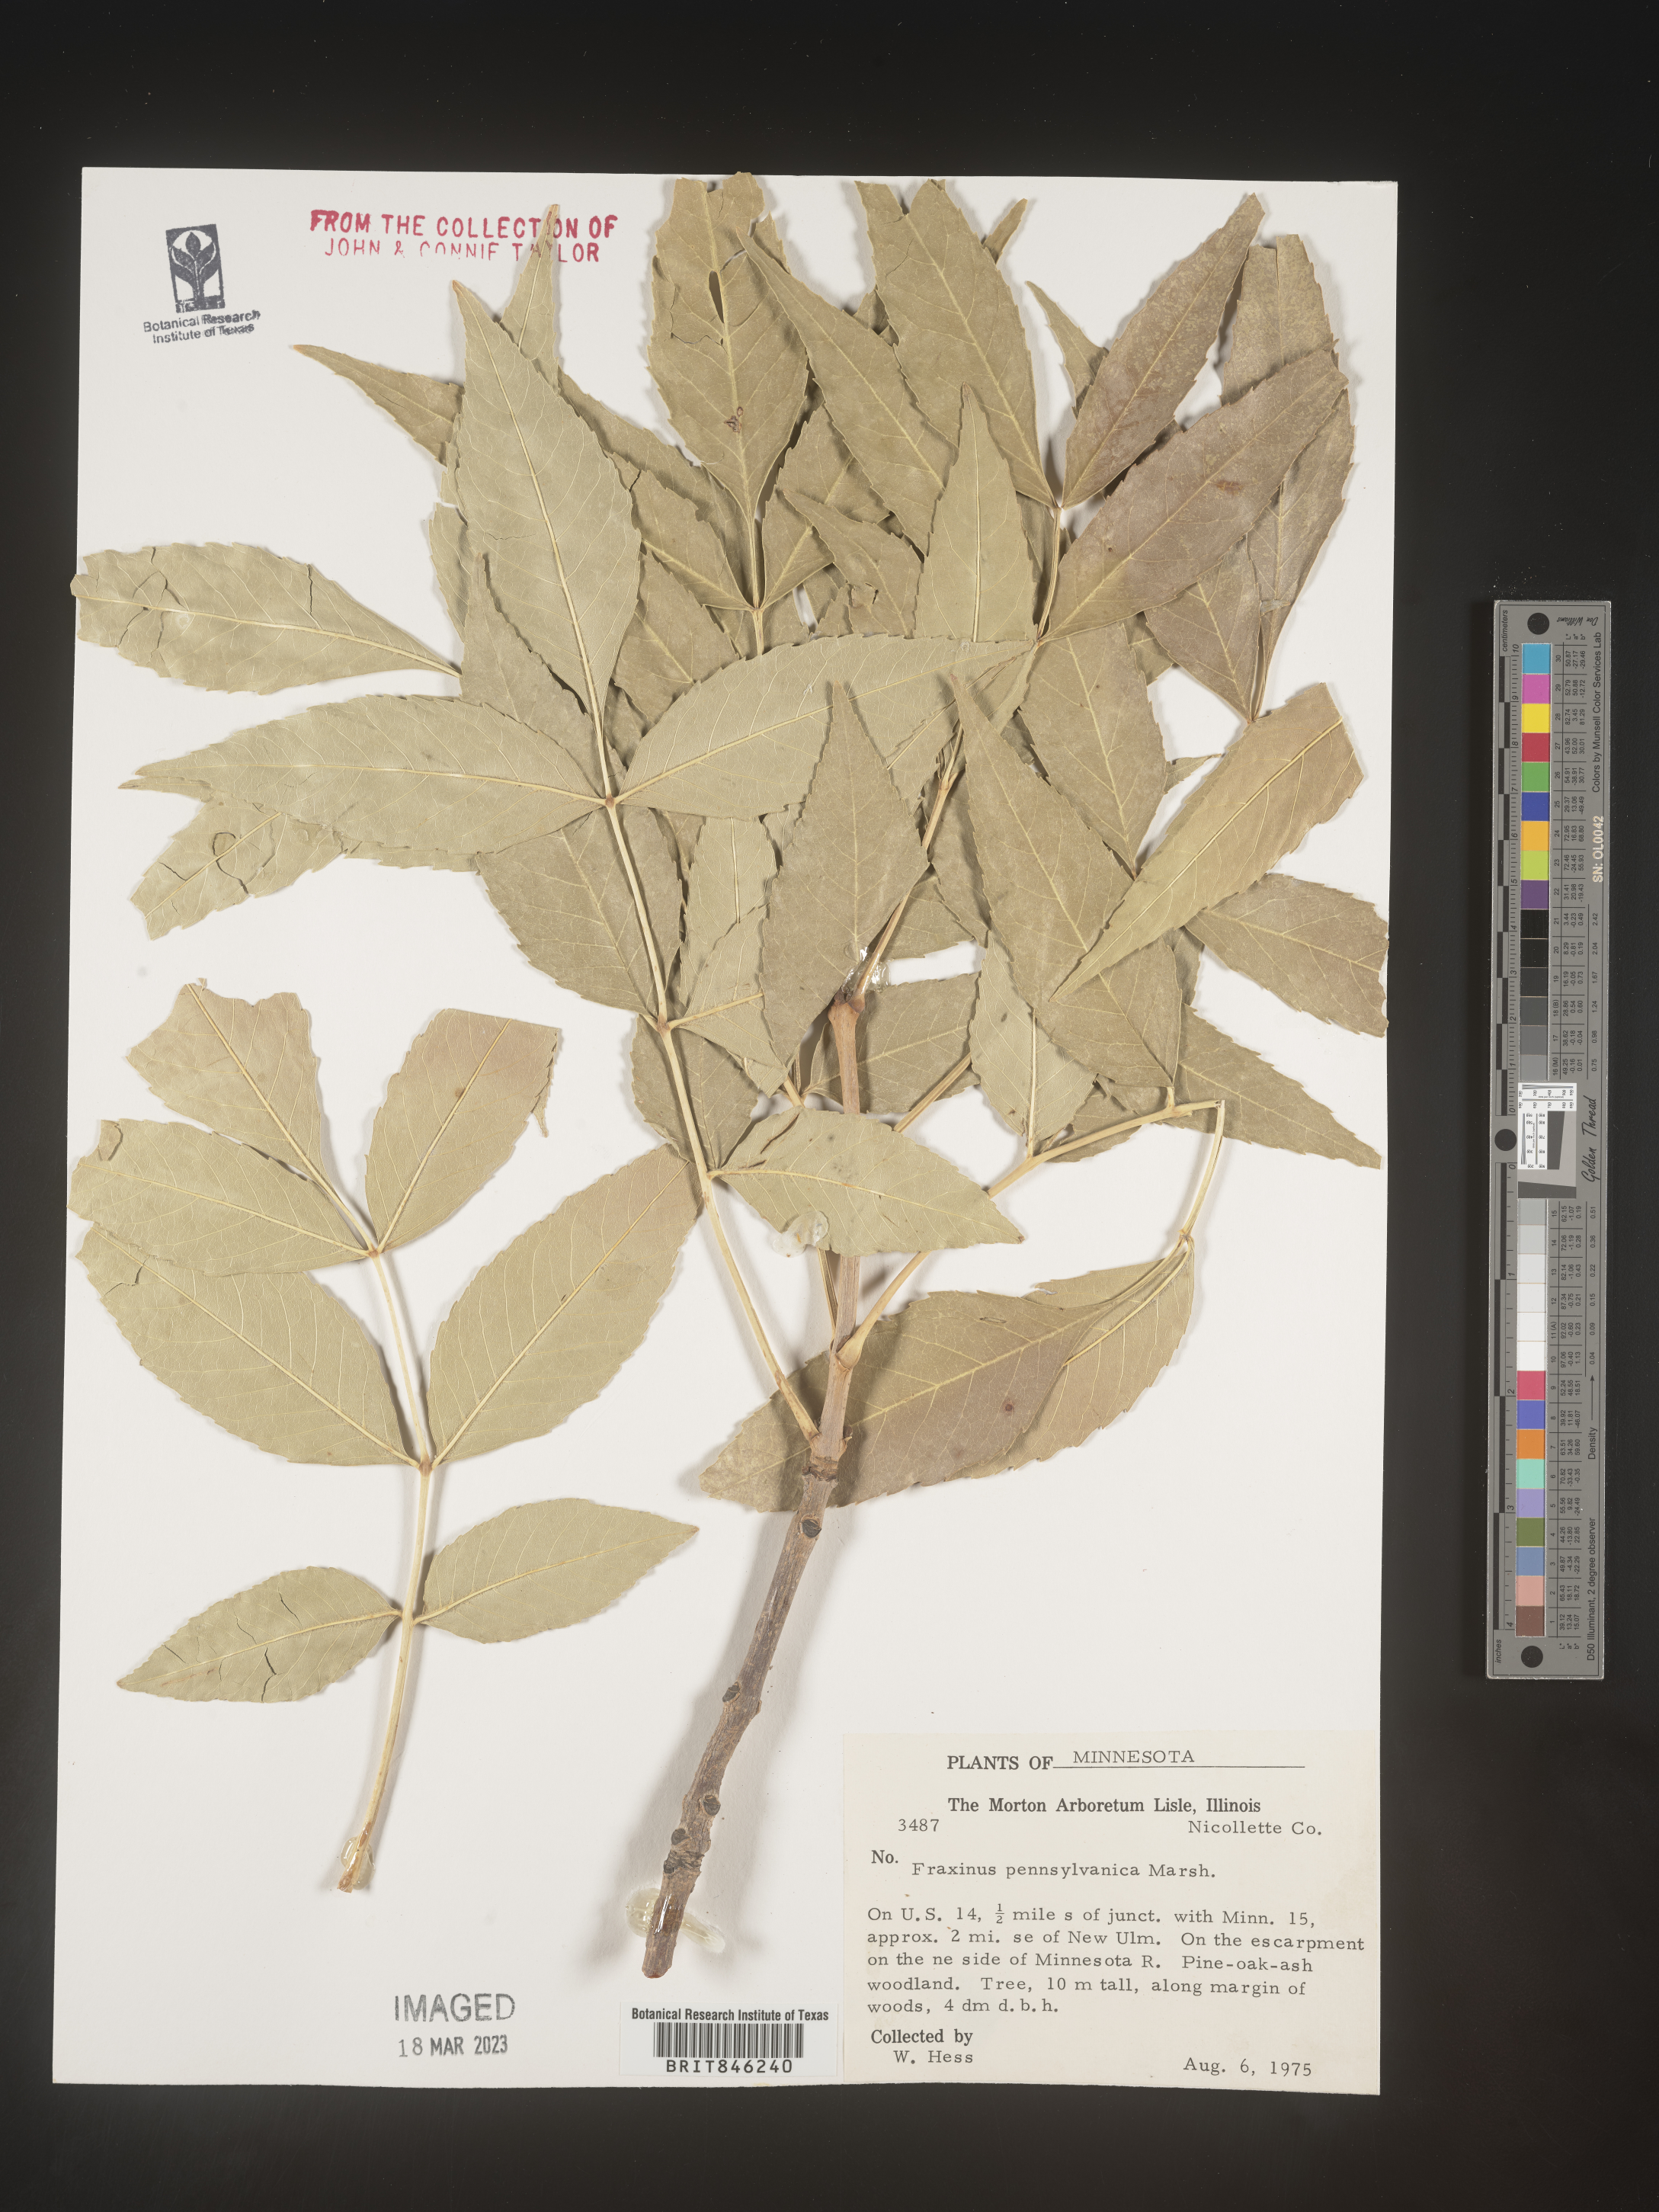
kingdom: Plantae
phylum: Tracheophyta
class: Magnoliopsida
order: Lamiales
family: Oleaceae
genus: Fraxinus
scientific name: Fraxinus pennsylvanica
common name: Green ash
